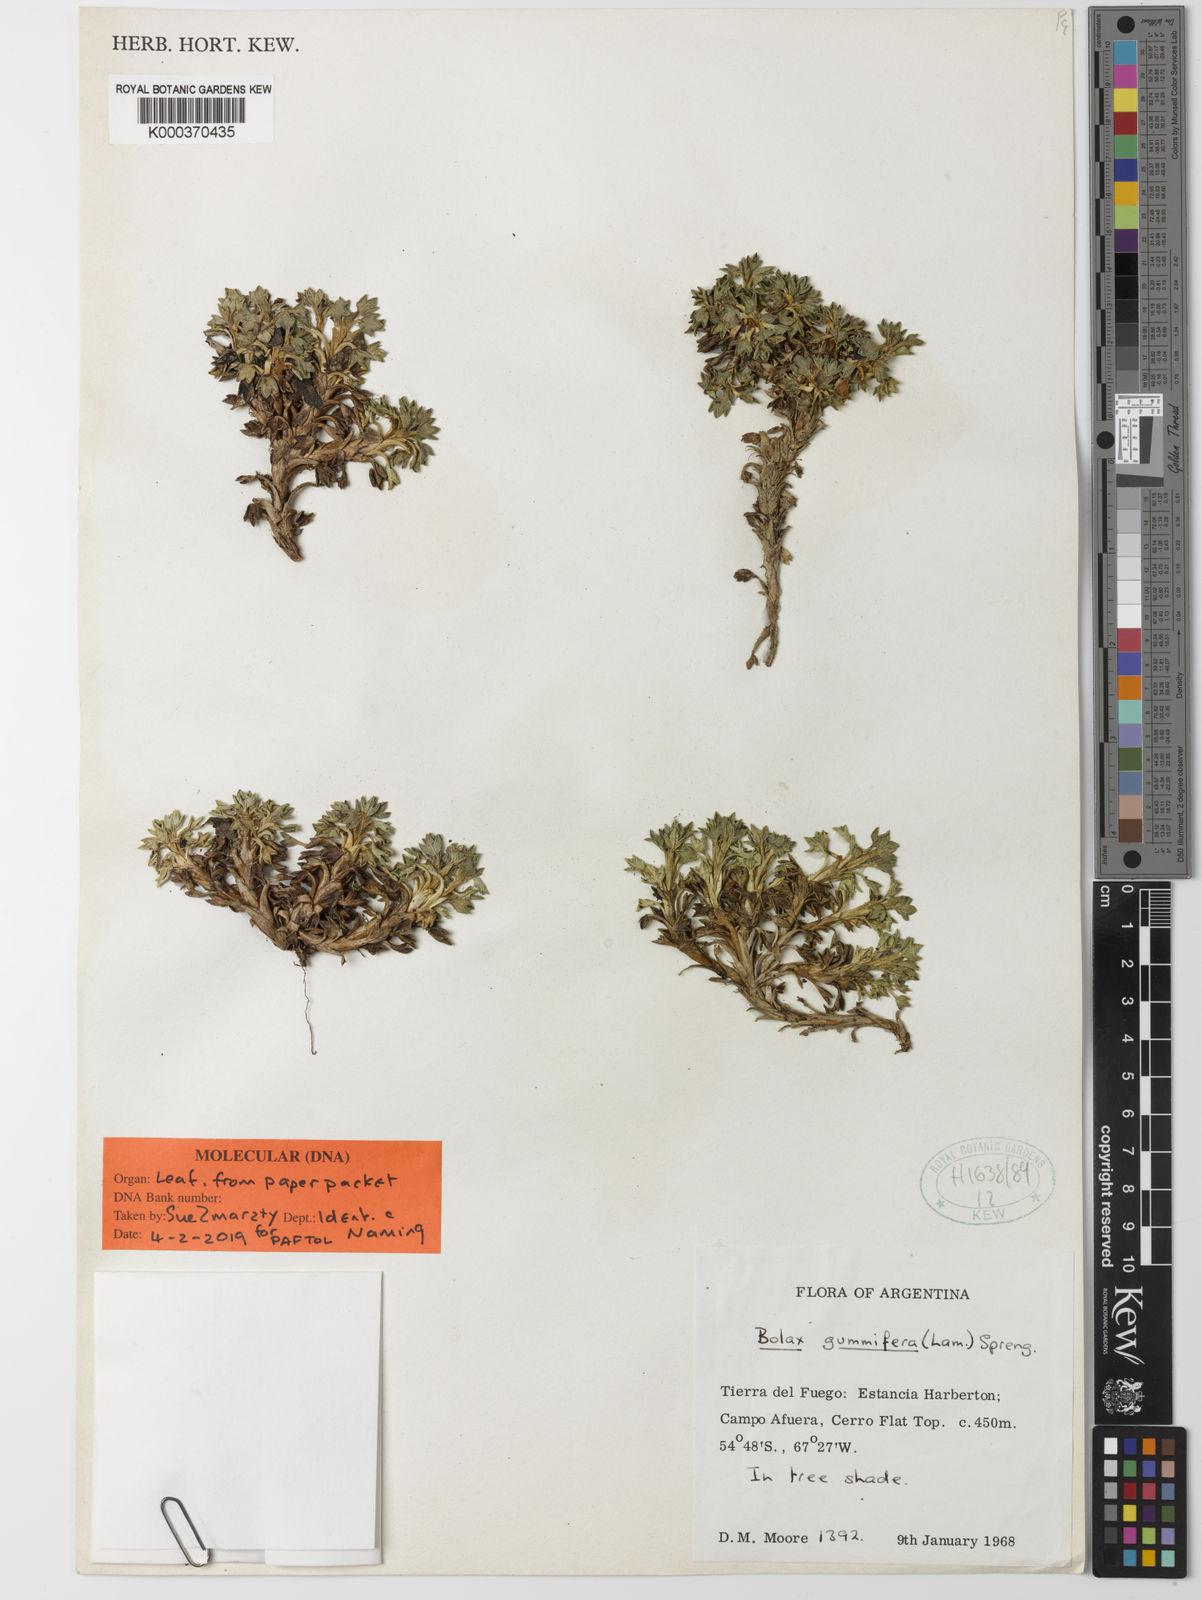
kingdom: Plantae
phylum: Tracheophyta
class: Magnoliopsida
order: Apiales
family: Apiaceae
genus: Bolax
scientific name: Bolax gummifera
